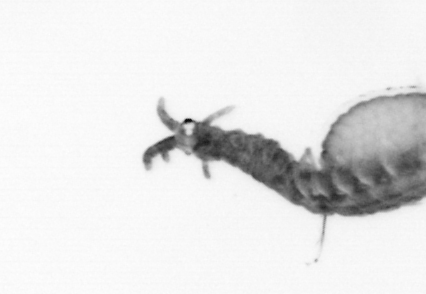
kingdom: Animalia
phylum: Annelida
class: Polychaeta
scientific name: Polychaeta
